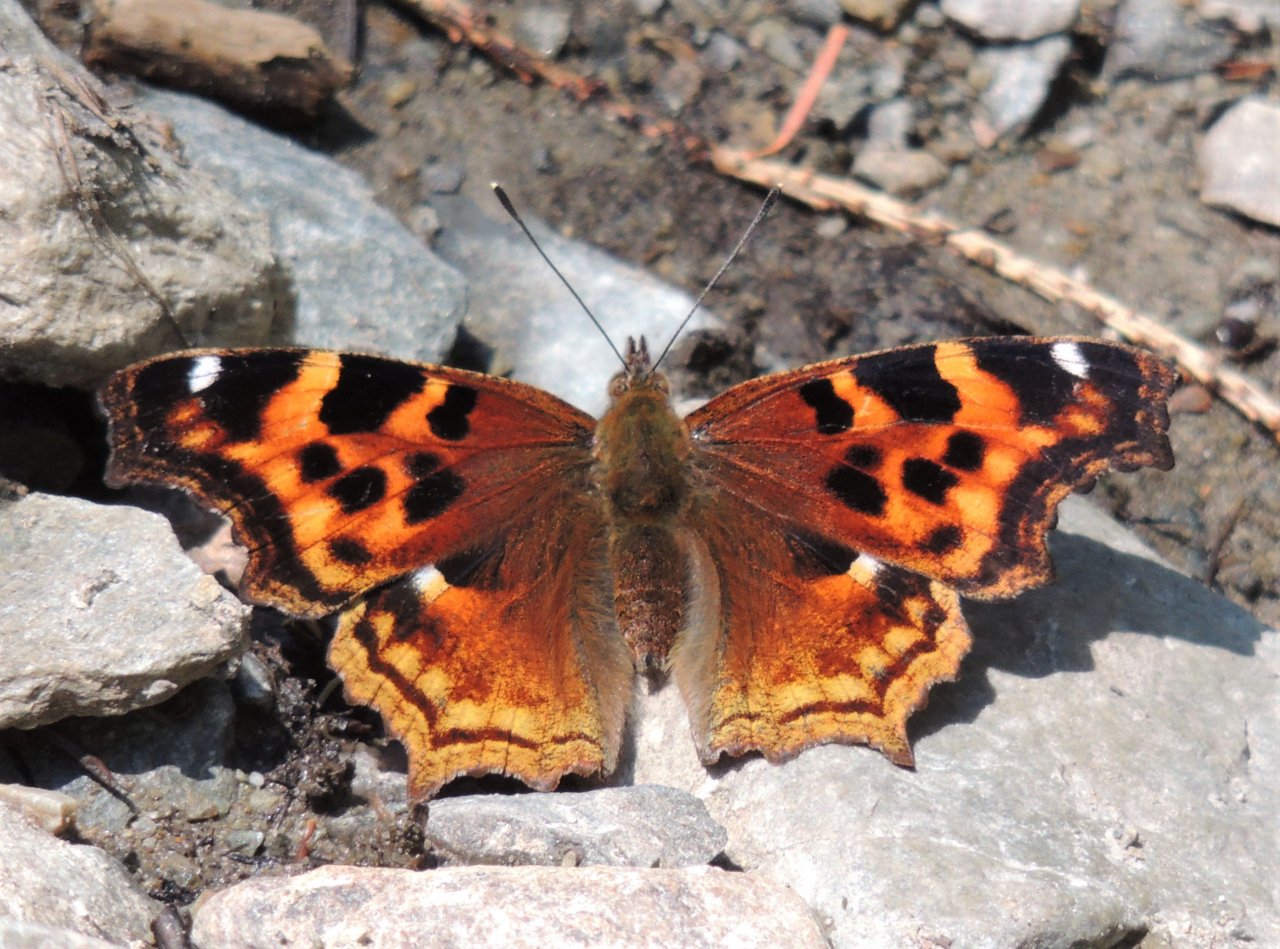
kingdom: Animalia
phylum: Arthropoda
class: Insecta
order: Lepidoptera
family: Nymphalidae
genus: Polygonia
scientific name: Polygonia vaualbum
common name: Compton Tortoiseshell
